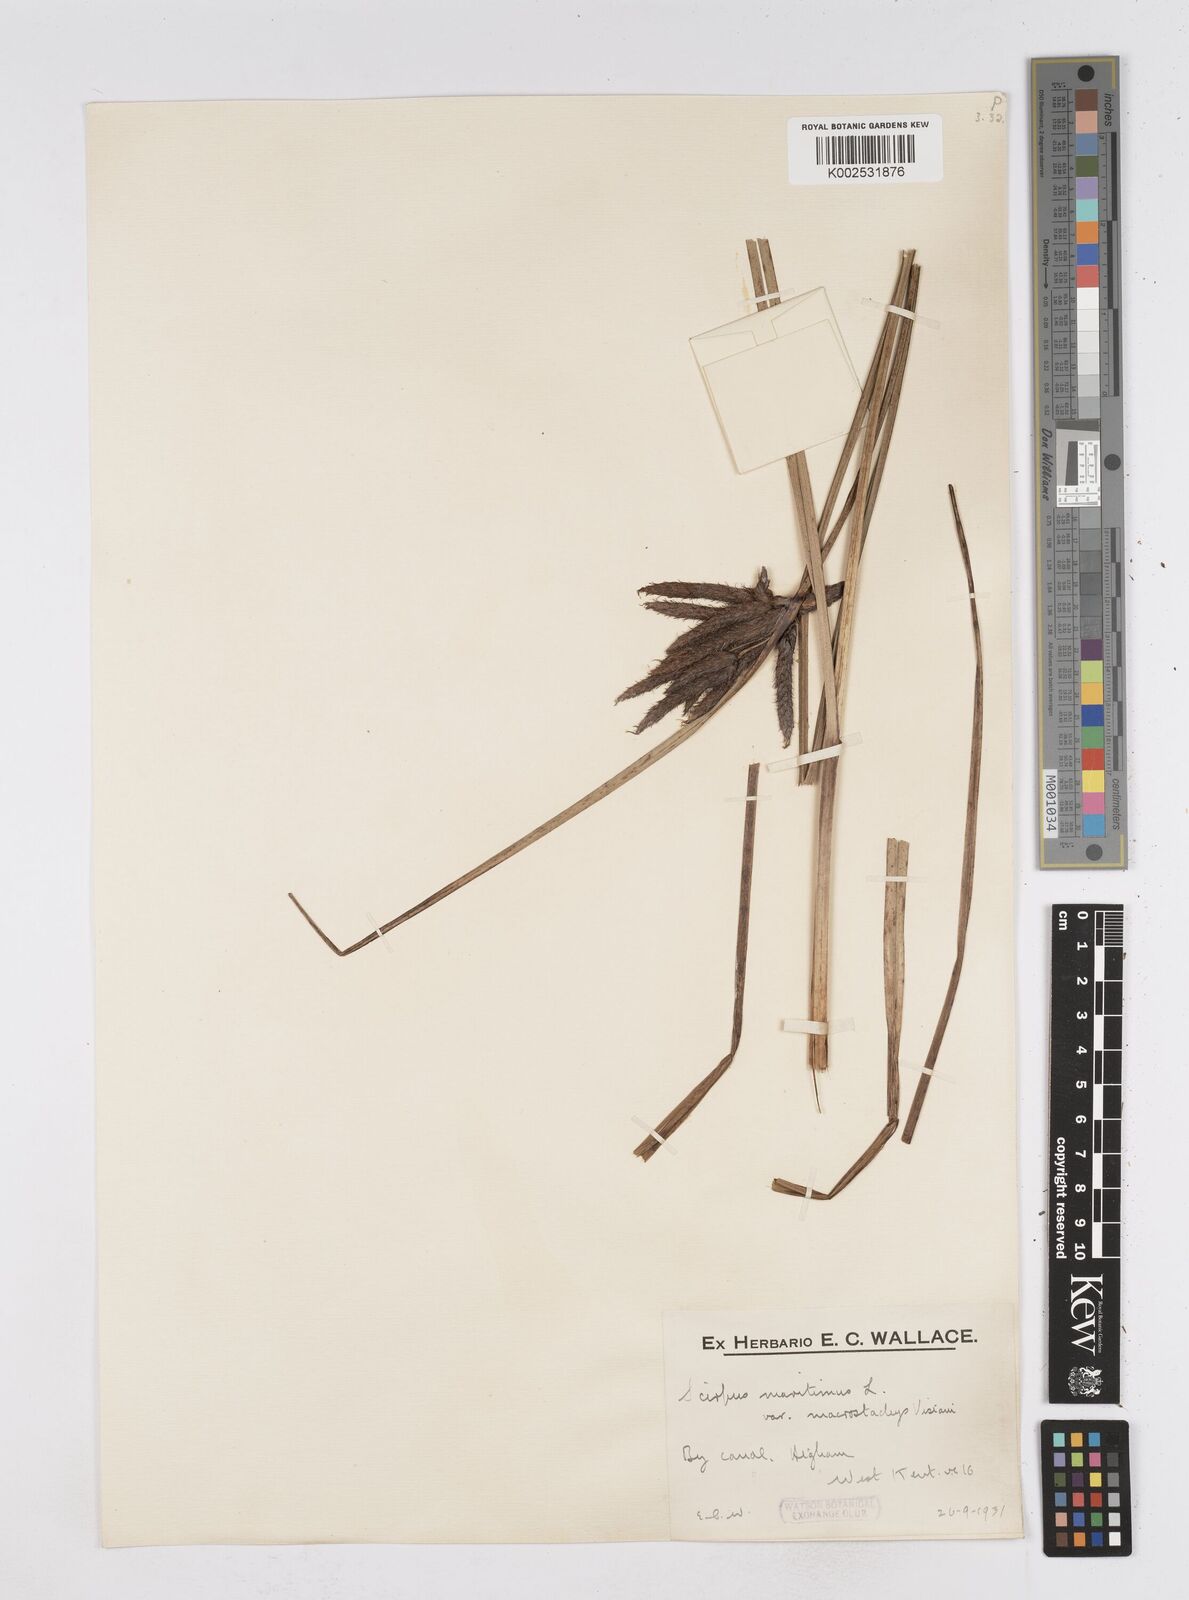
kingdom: Plantae
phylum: Tracheophyta
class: Liliopsida
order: Poales
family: Cyperaceae
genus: Bolboschoenus
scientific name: Bolboschoenus maritimus
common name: Sea club-rush
